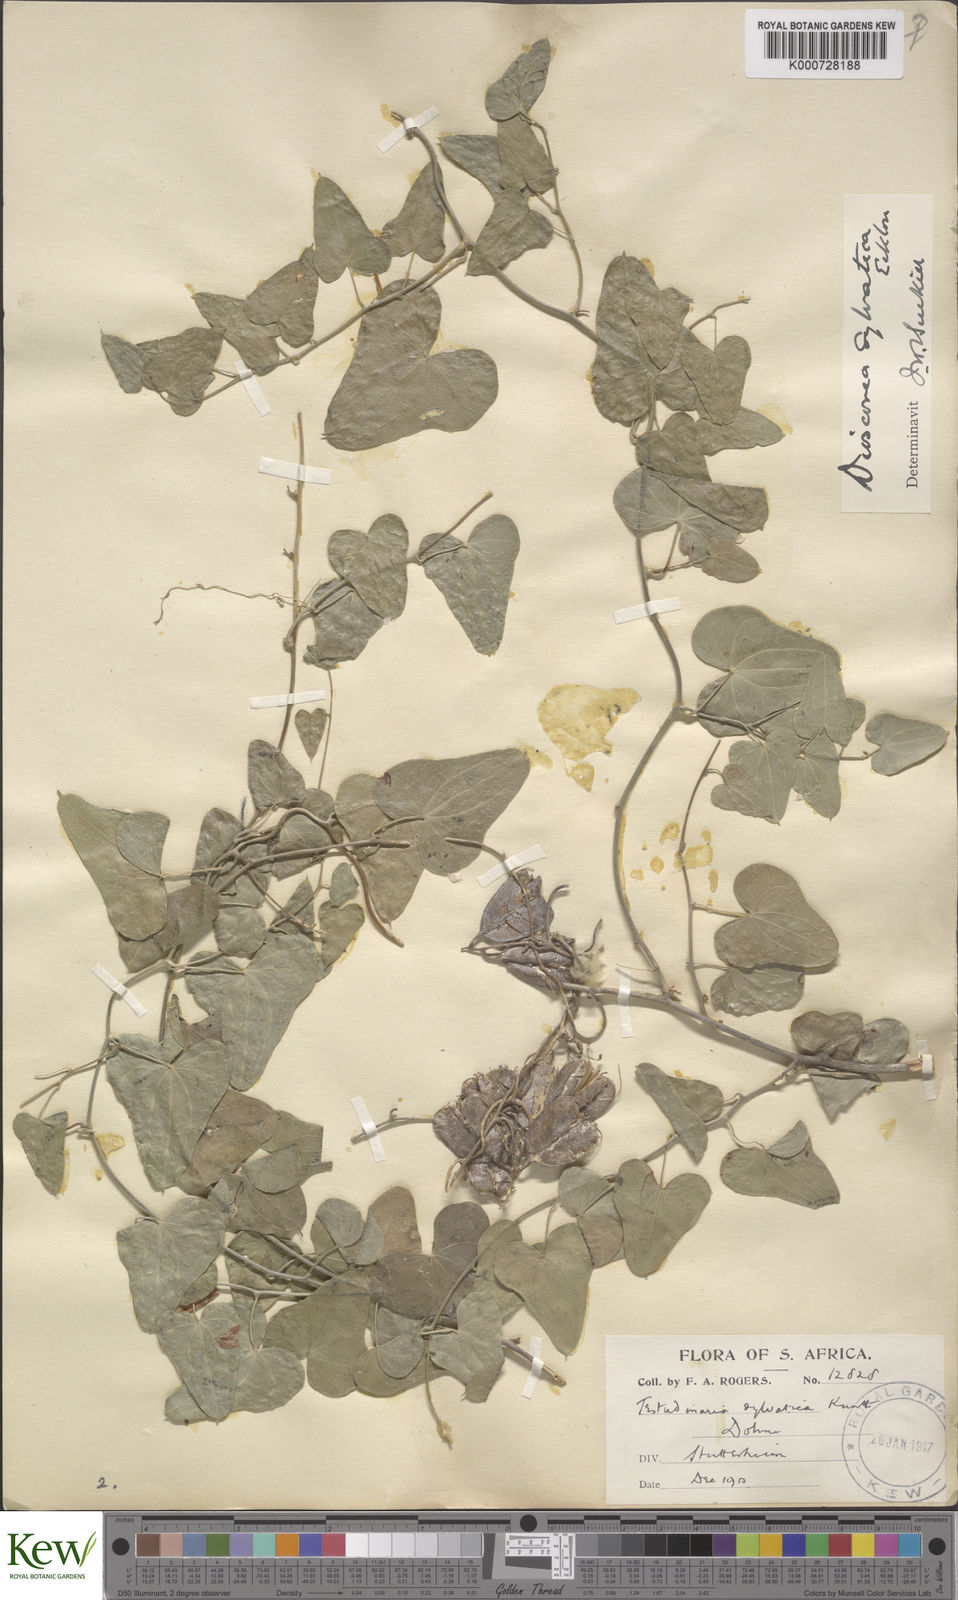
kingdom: Plantae
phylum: Tracheophyta
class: Liliopsida
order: Dioscoreales
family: Dioscoreaceae
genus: Dioscorea
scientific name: Dioscorea sylvatica
